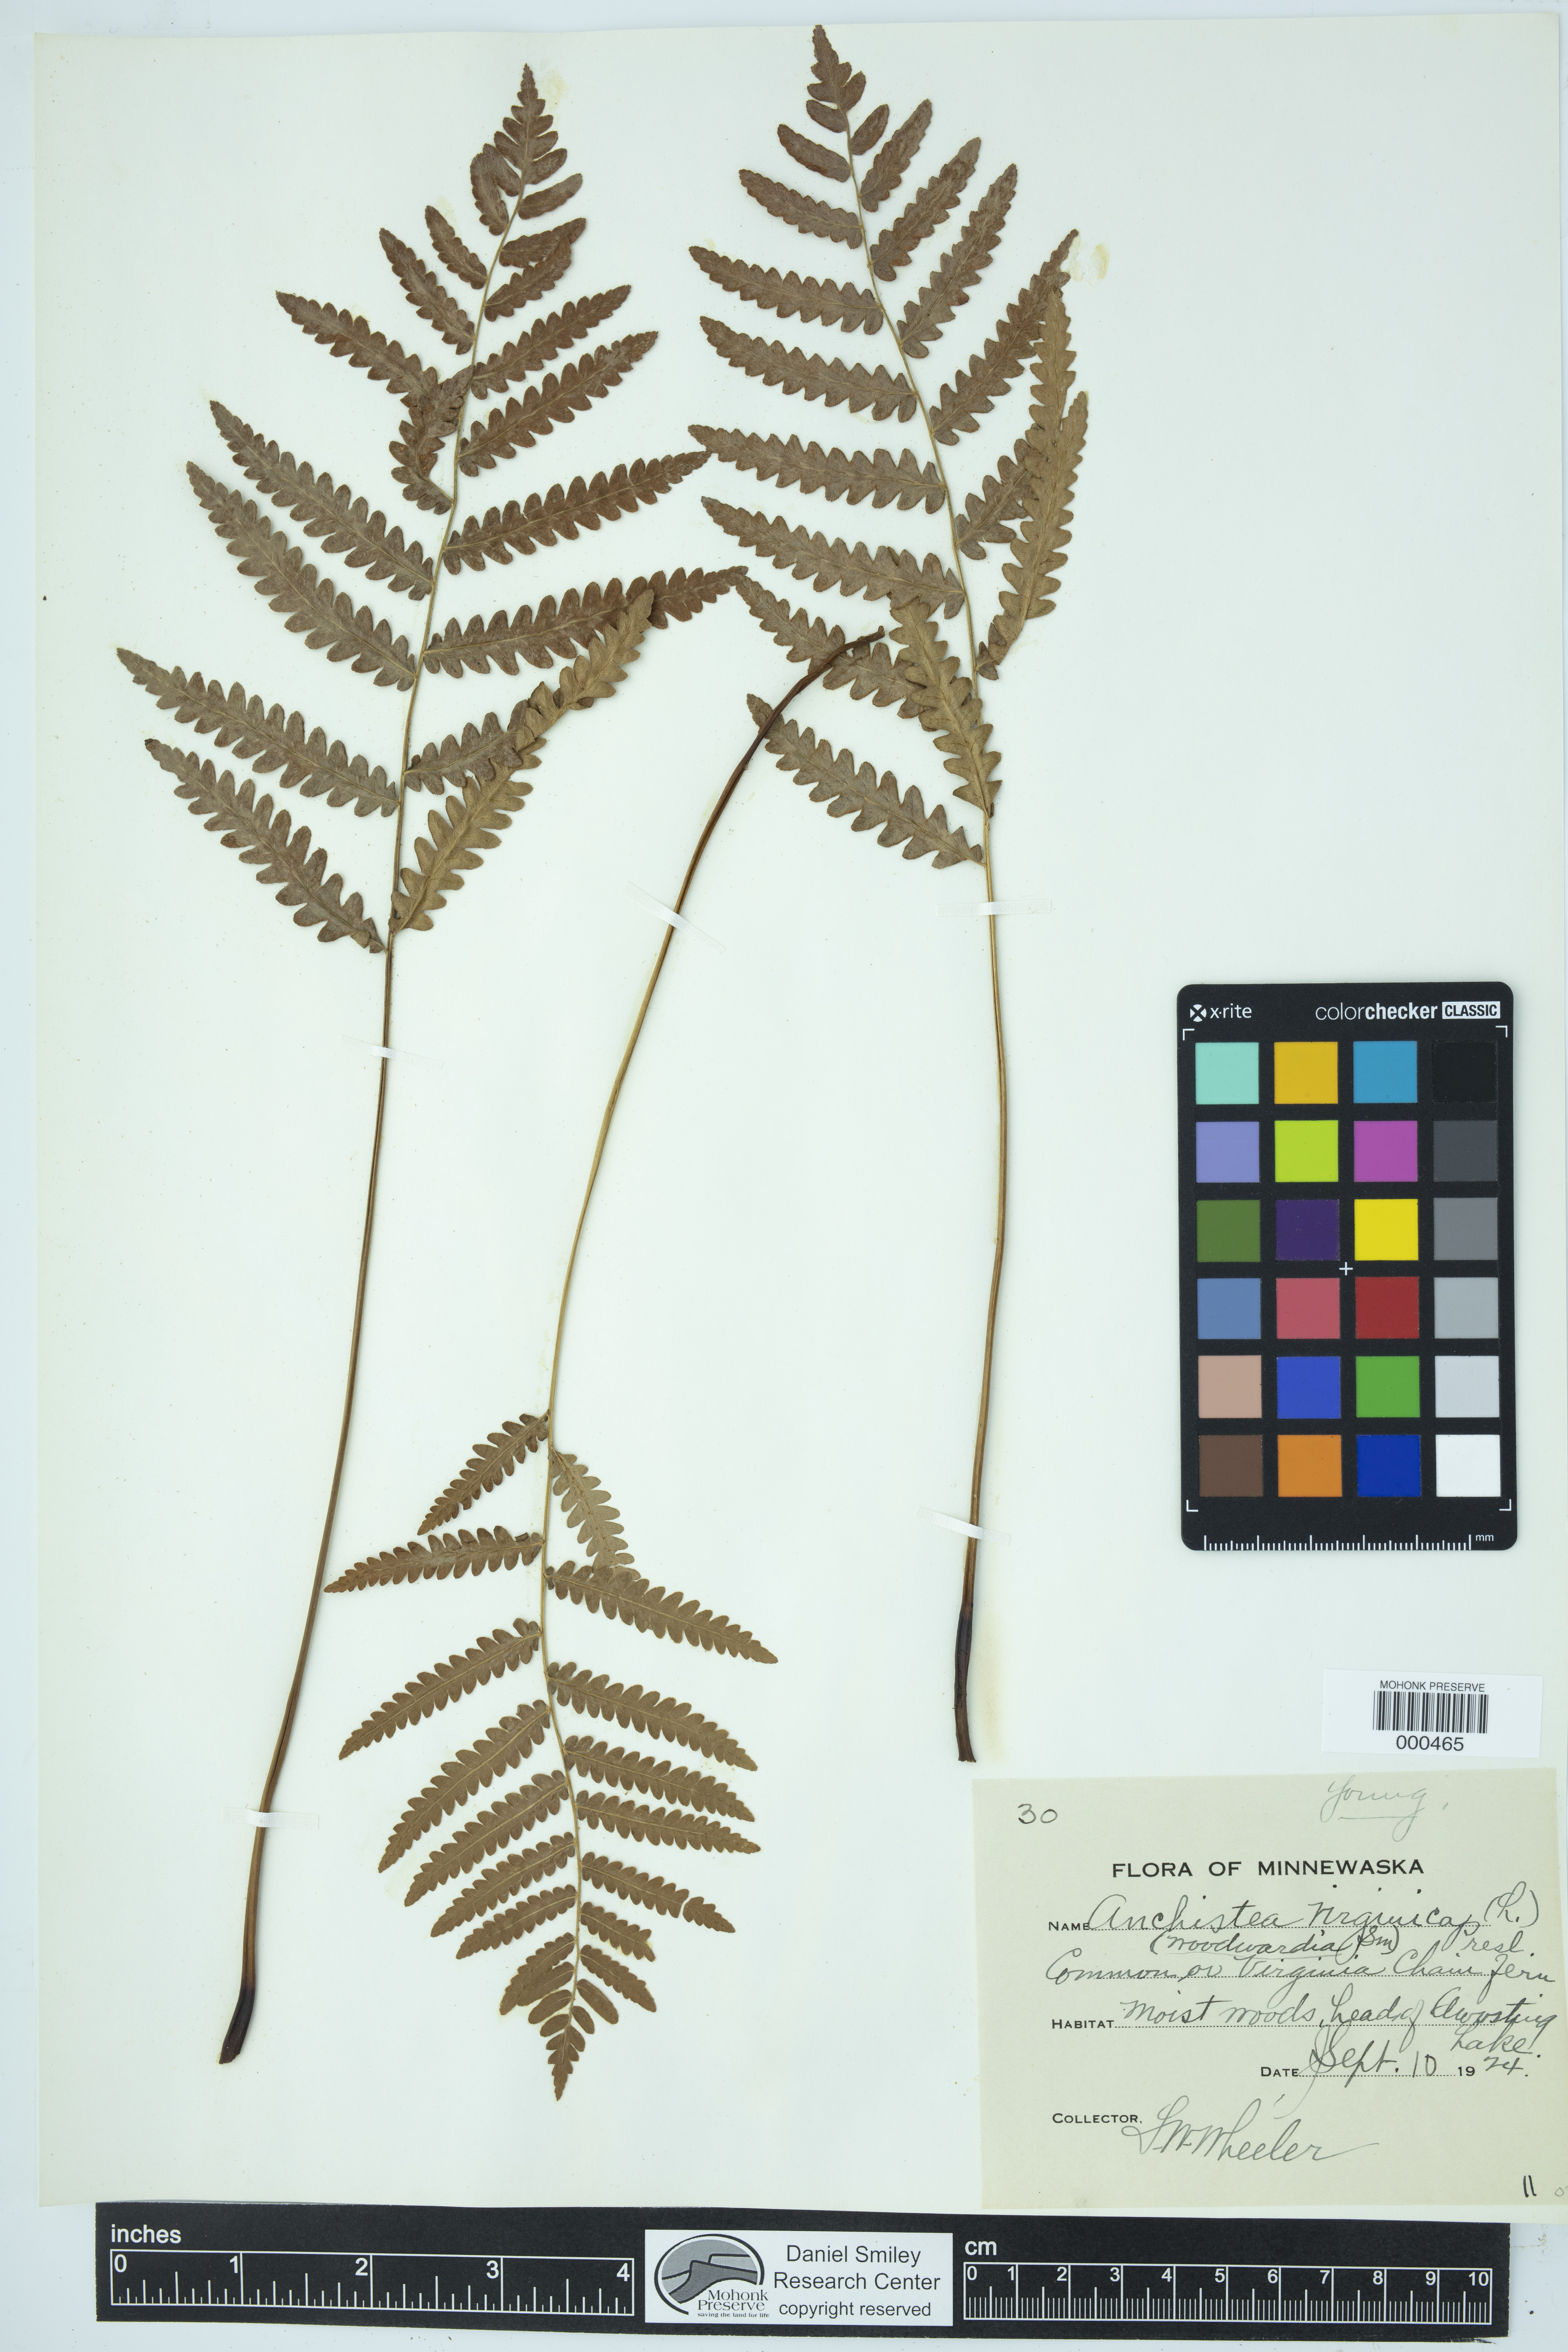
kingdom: Plantae
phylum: Tracheophyta
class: Polypodiopsida
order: Polypodiales
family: Blechnaceae
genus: Anchistea
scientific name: Anchistea virginica
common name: Virginia chain fern
